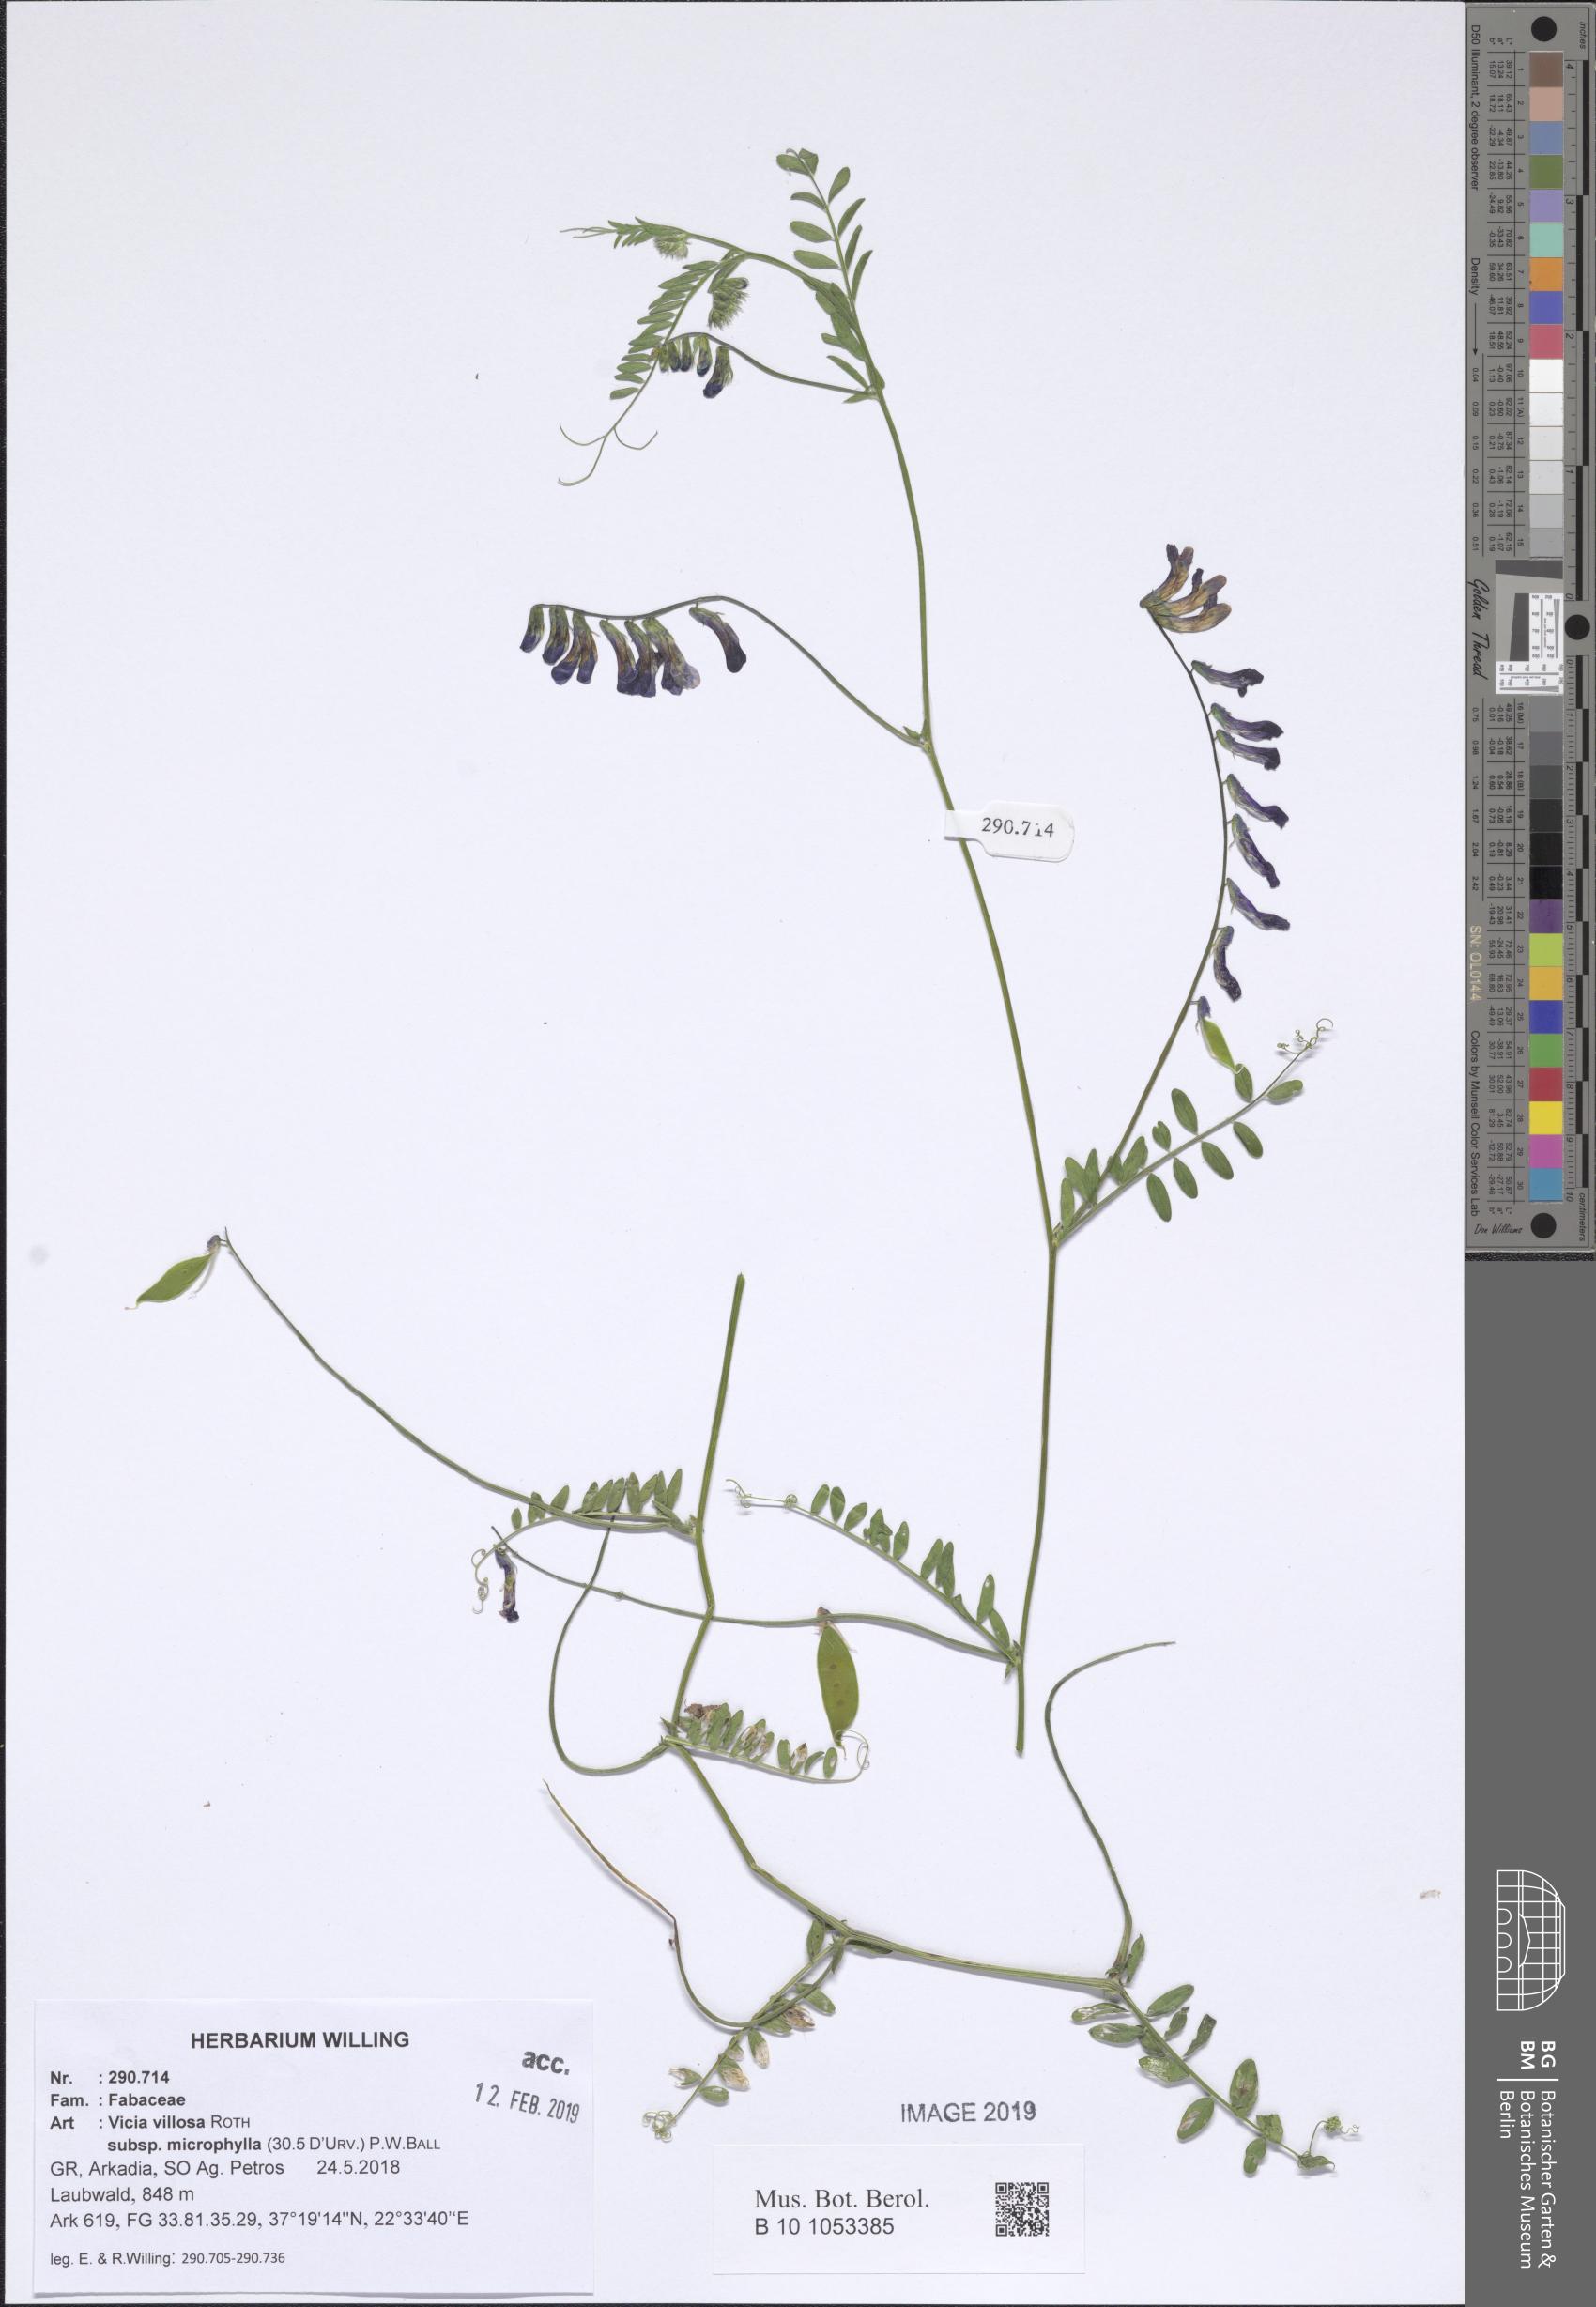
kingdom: Plantae
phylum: Tracheophyta
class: Magnoliopsida
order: Fabales
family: Fabaceae
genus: Vicia
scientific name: Vicia villosa
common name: Fodder vetch
